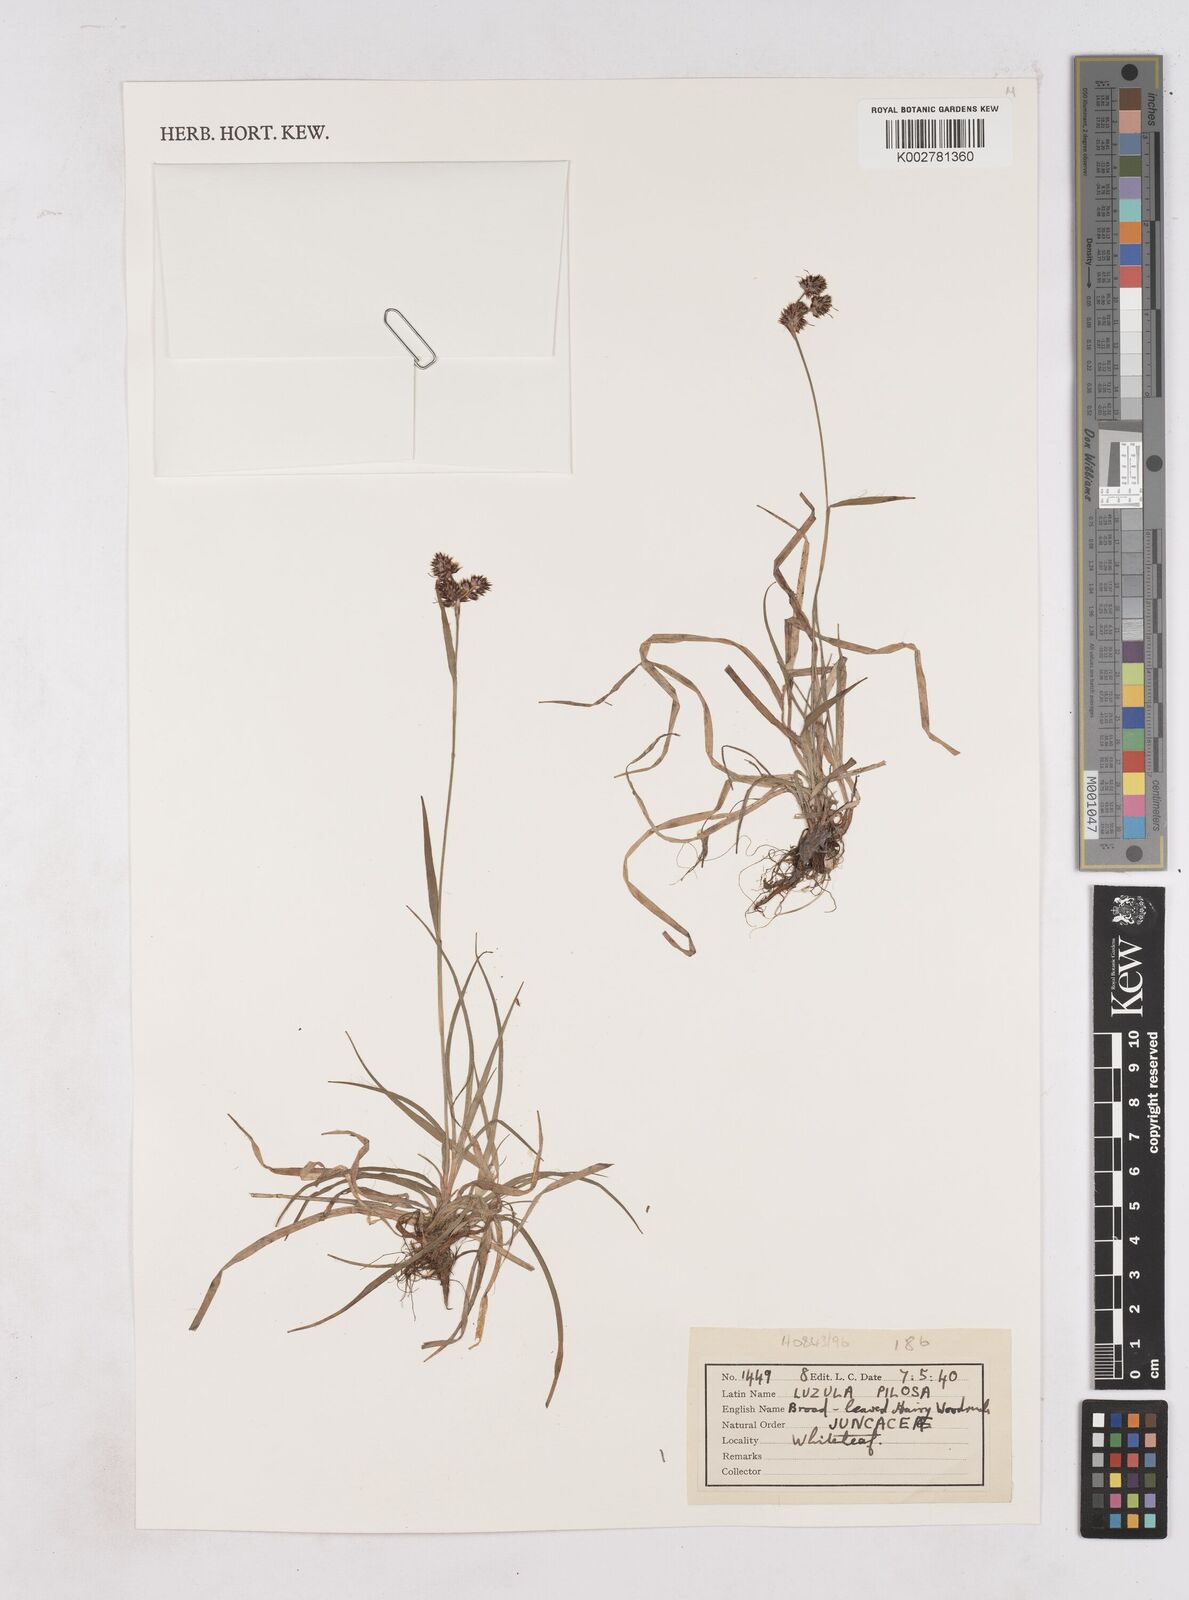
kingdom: Plantae
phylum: Tracheophyta
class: Liliopsida
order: Poales
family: Juncaceae
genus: Luzula
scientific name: Luzula pilosa
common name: Hairy wood-rush
